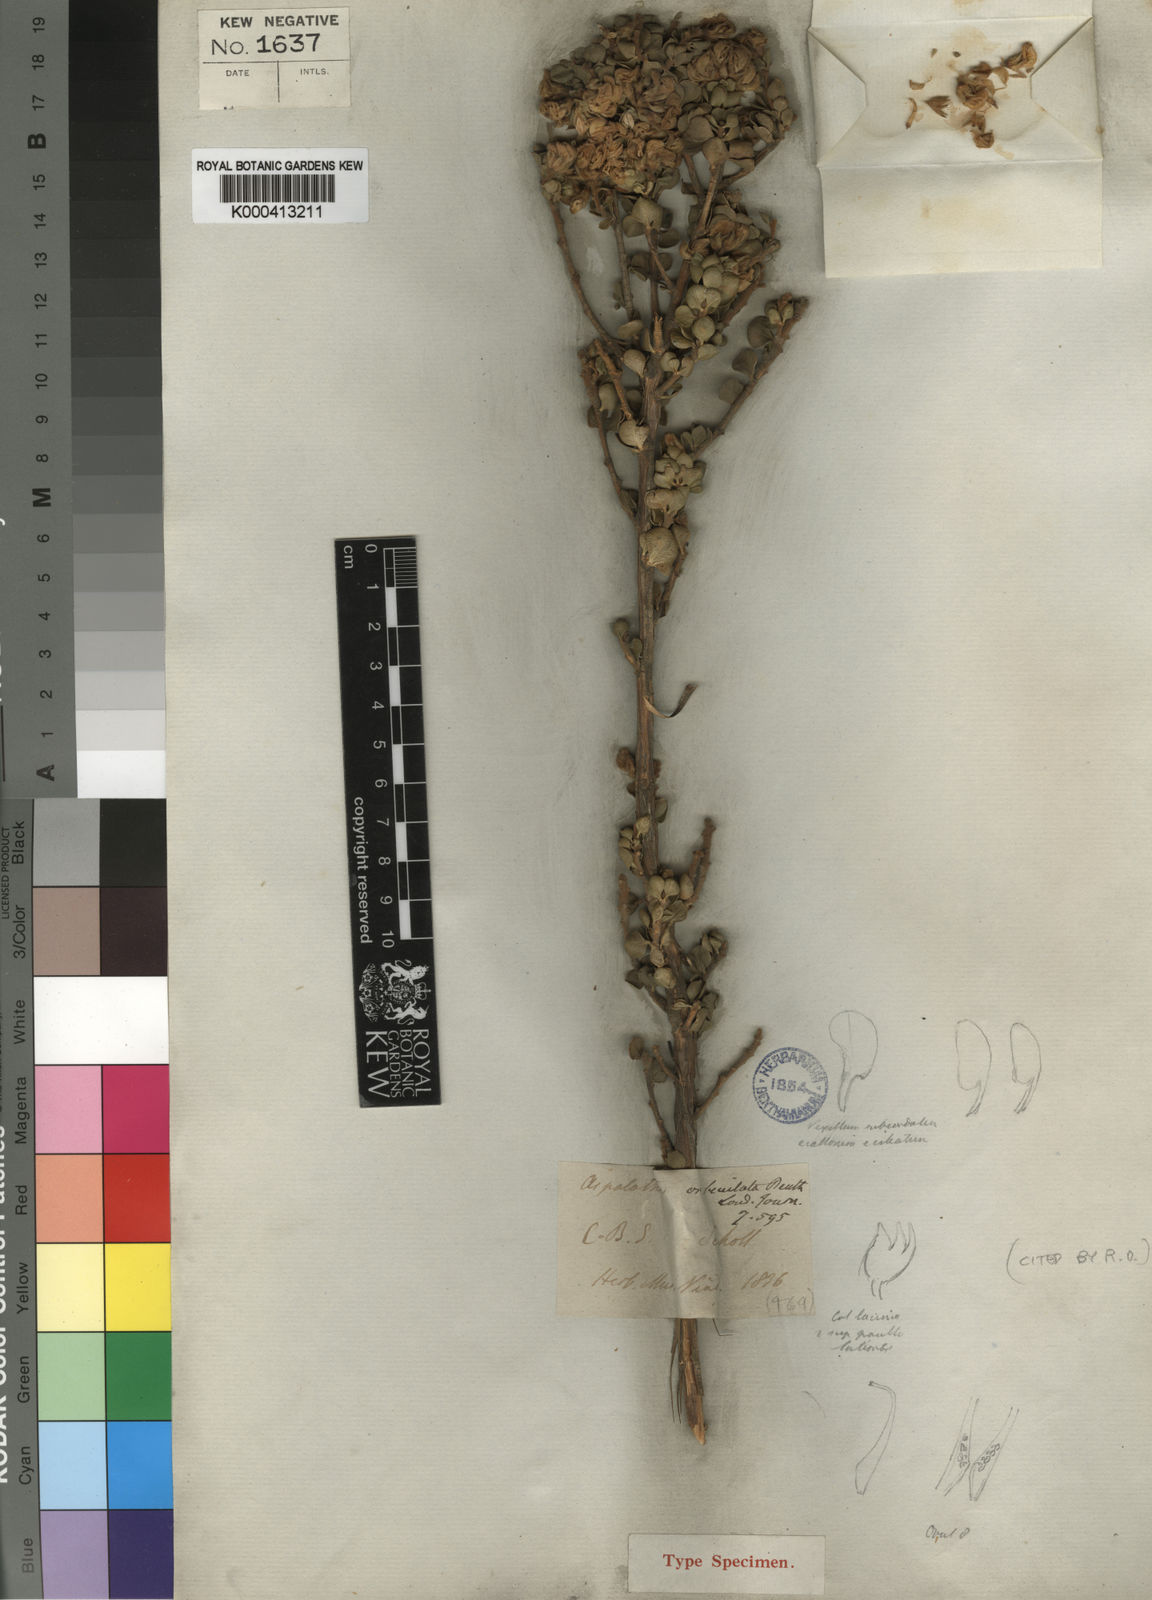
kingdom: Plantae
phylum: Tracheophyta
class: Magnoliopsida
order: Fabales
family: Fabaceae
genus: Aspalathus
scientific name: Aspalathus orbiculata
